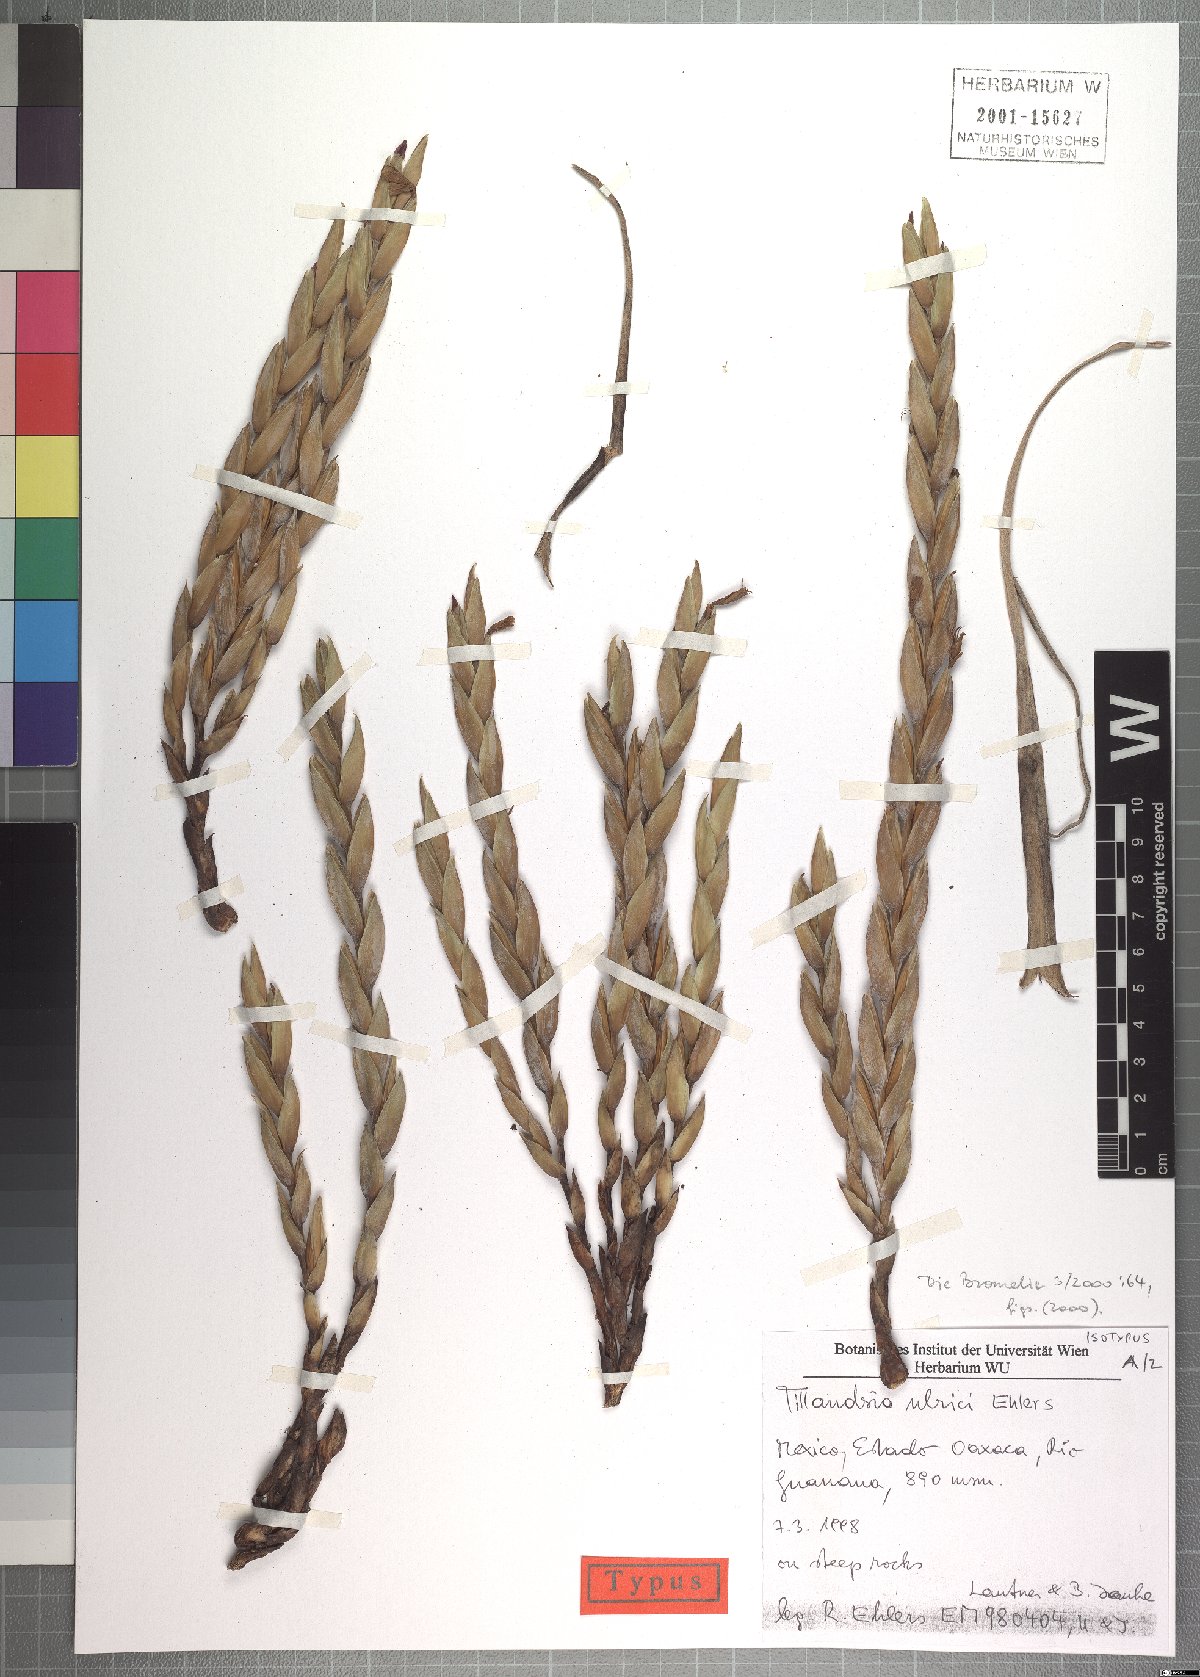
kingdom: Plantae
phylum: Tracheophyta
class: Liliopsida
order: Poales
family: Bromeliaceae
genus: Tillandsia
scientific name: Tillandsia ulrici
